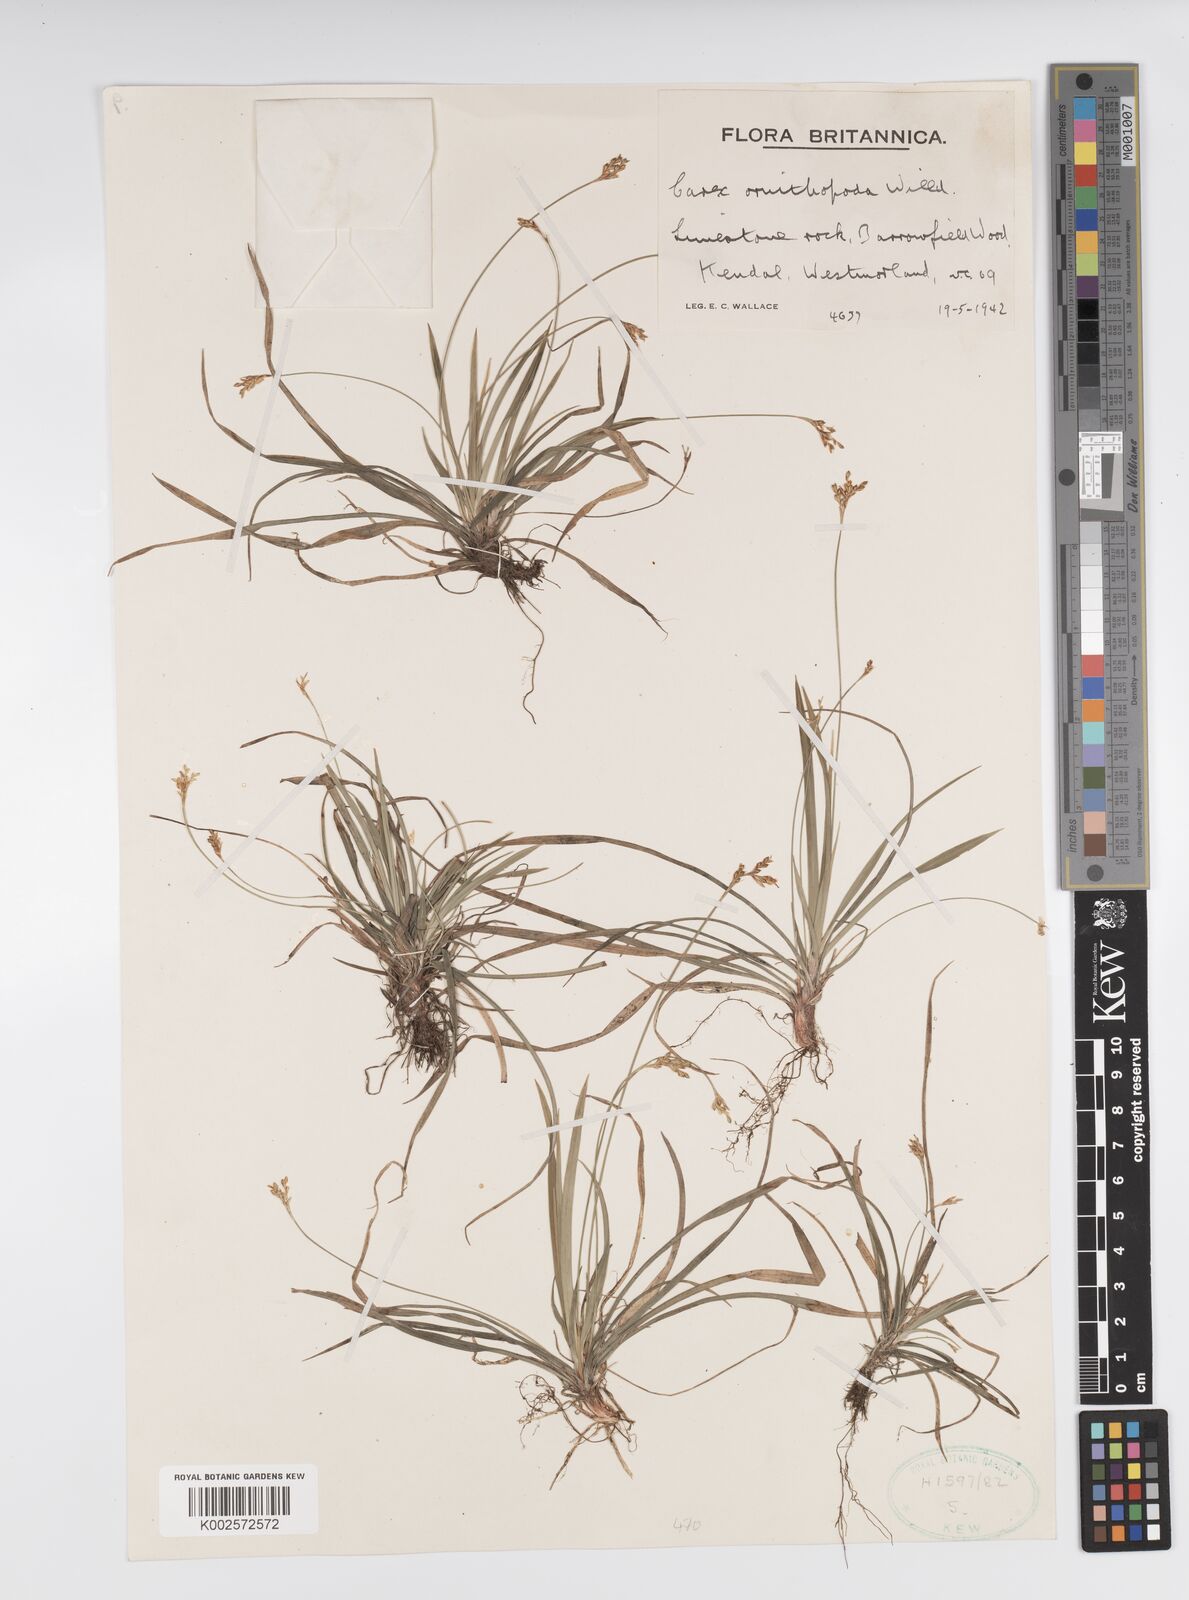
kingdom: Plantae
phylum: Tracheophyta
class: Liliopsida
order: Poales
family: Cyperaceae
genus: Carex
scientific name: Carex ornithopoda
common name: Bird's-foot sedge
